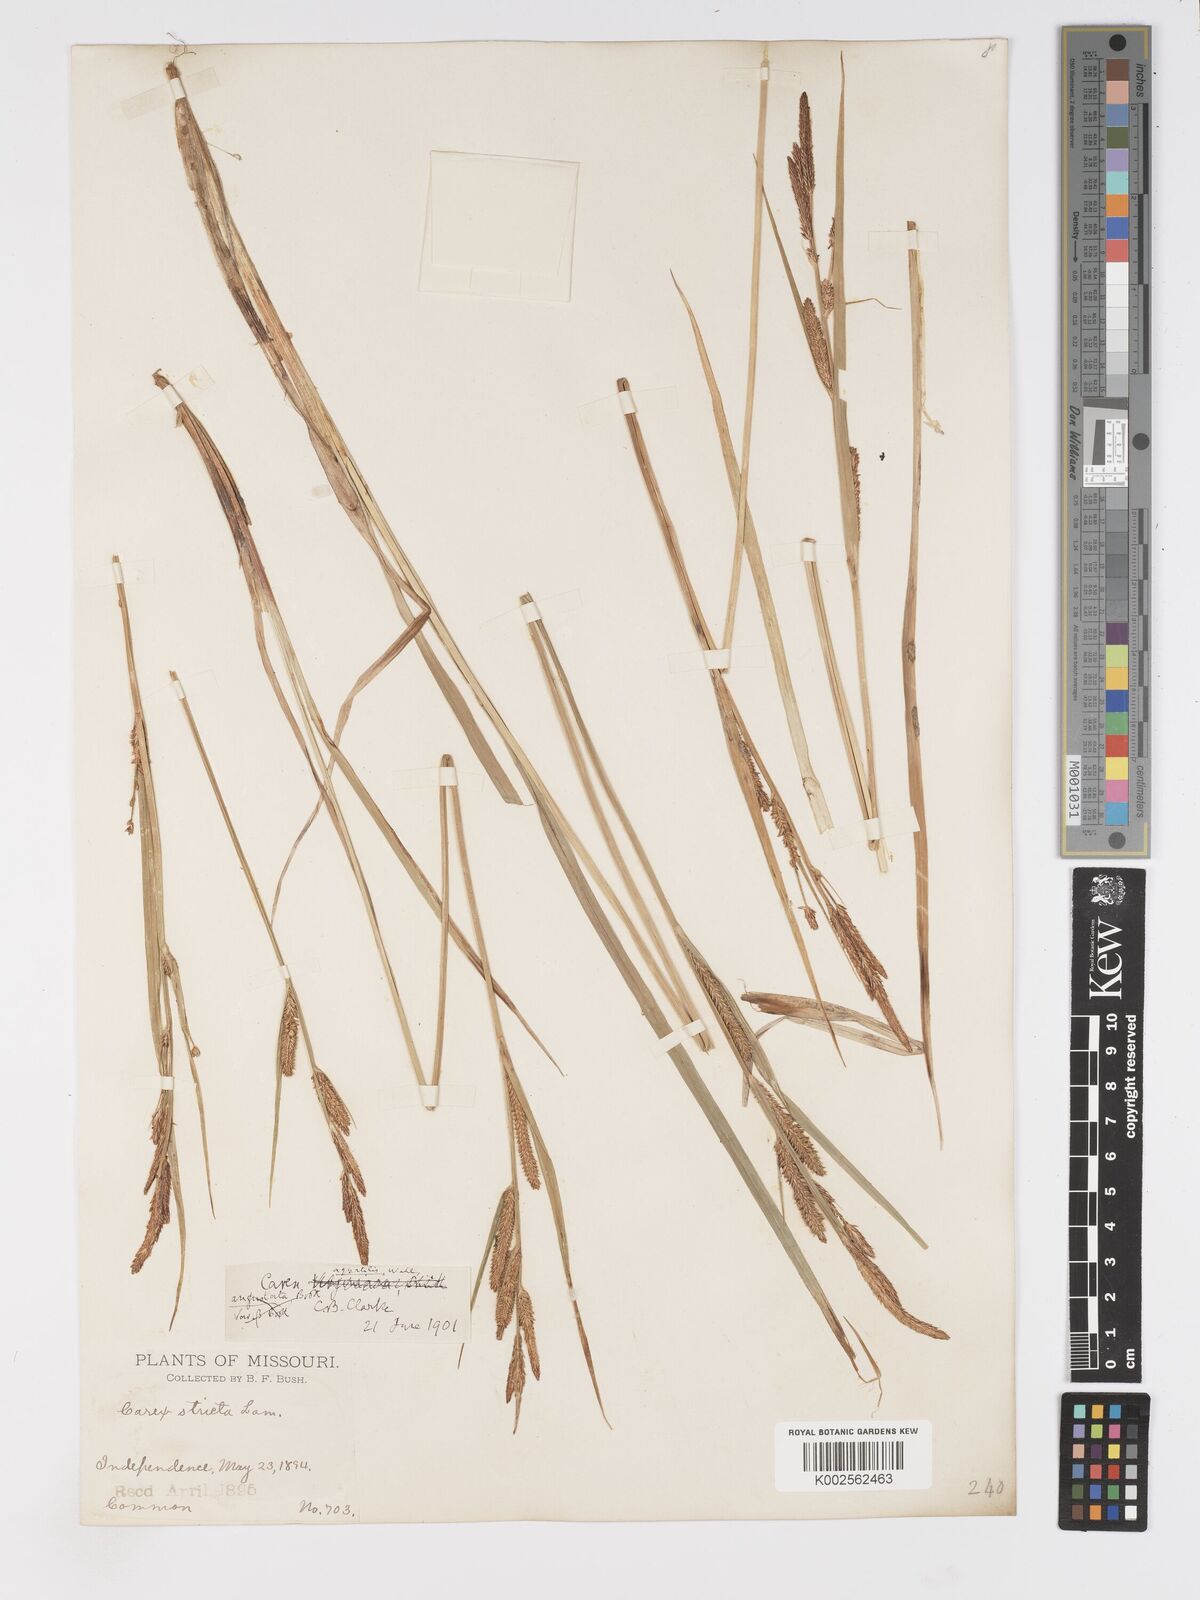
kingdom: Plantae
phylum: Tracheophyta
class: Liliopsida
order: Poales
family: Cyperaceae
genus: Carex
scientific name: Carex
